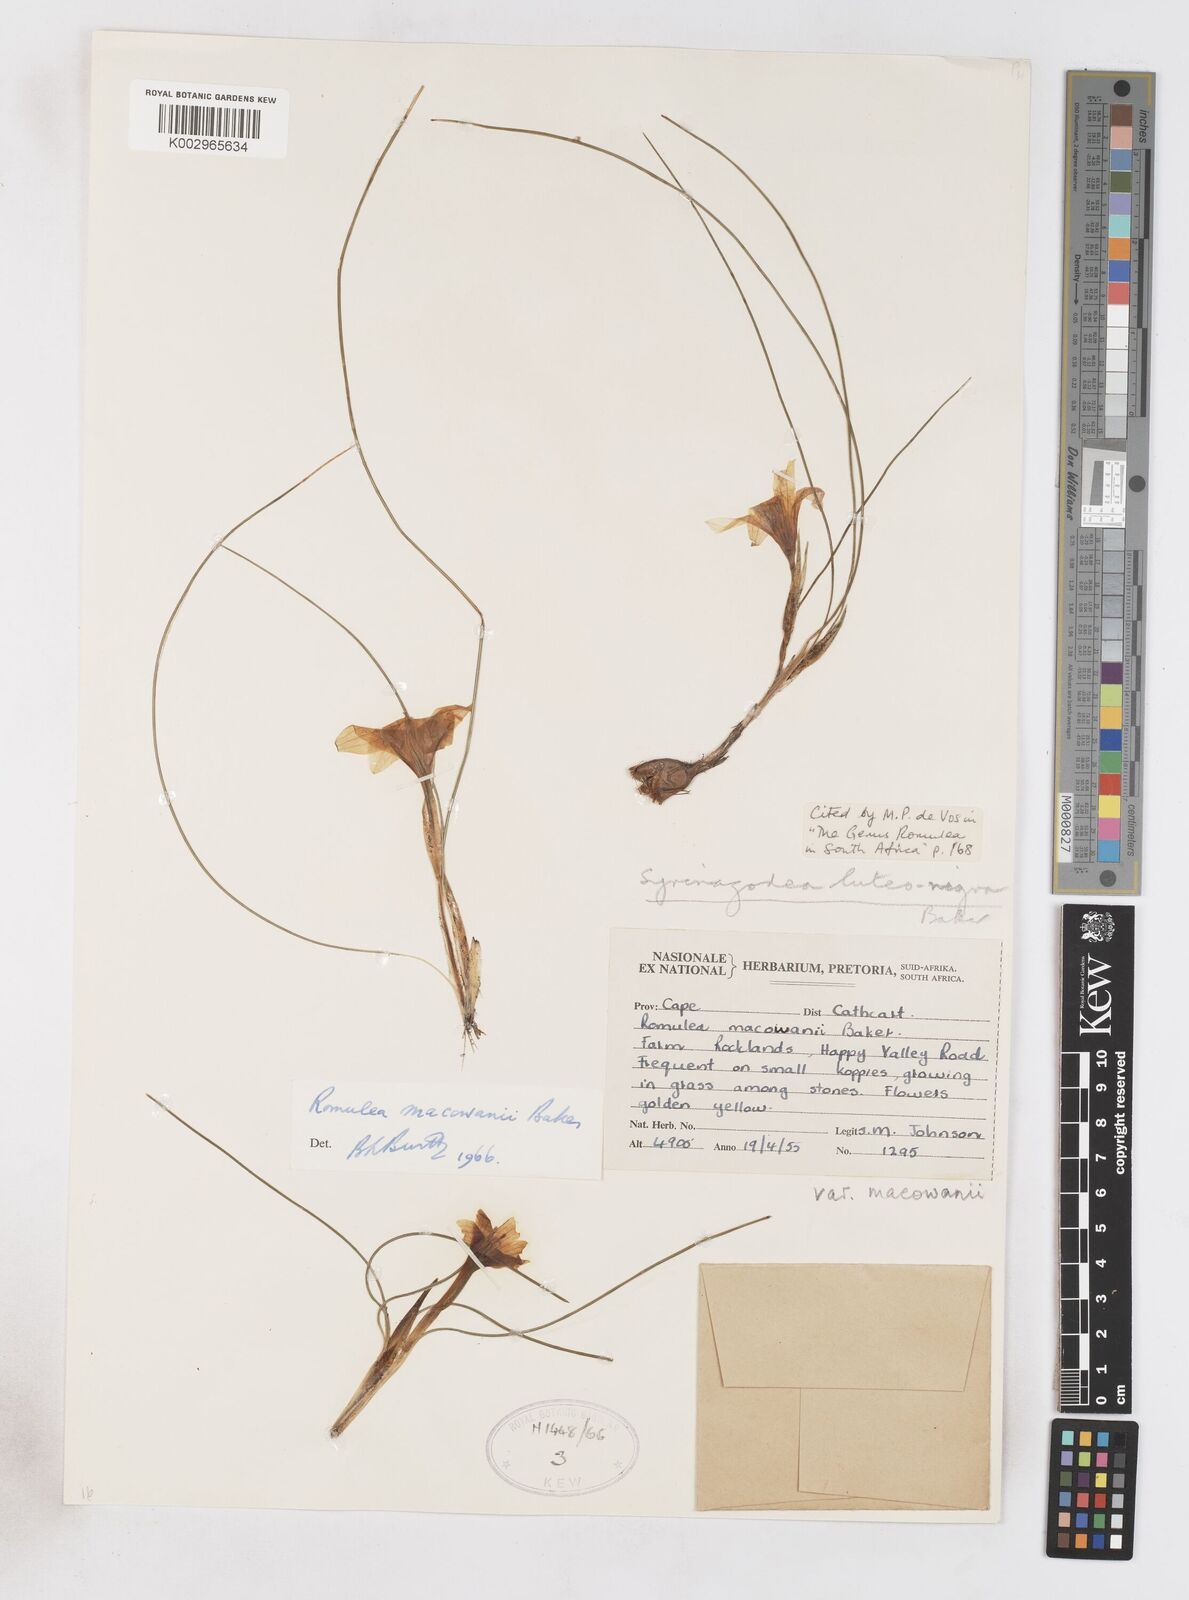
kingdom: Plantae
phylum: Tracheophyta
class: Liliopsida
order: Asparagales
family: Iridaceae
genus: Romulea
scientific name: Romulea macowanii
